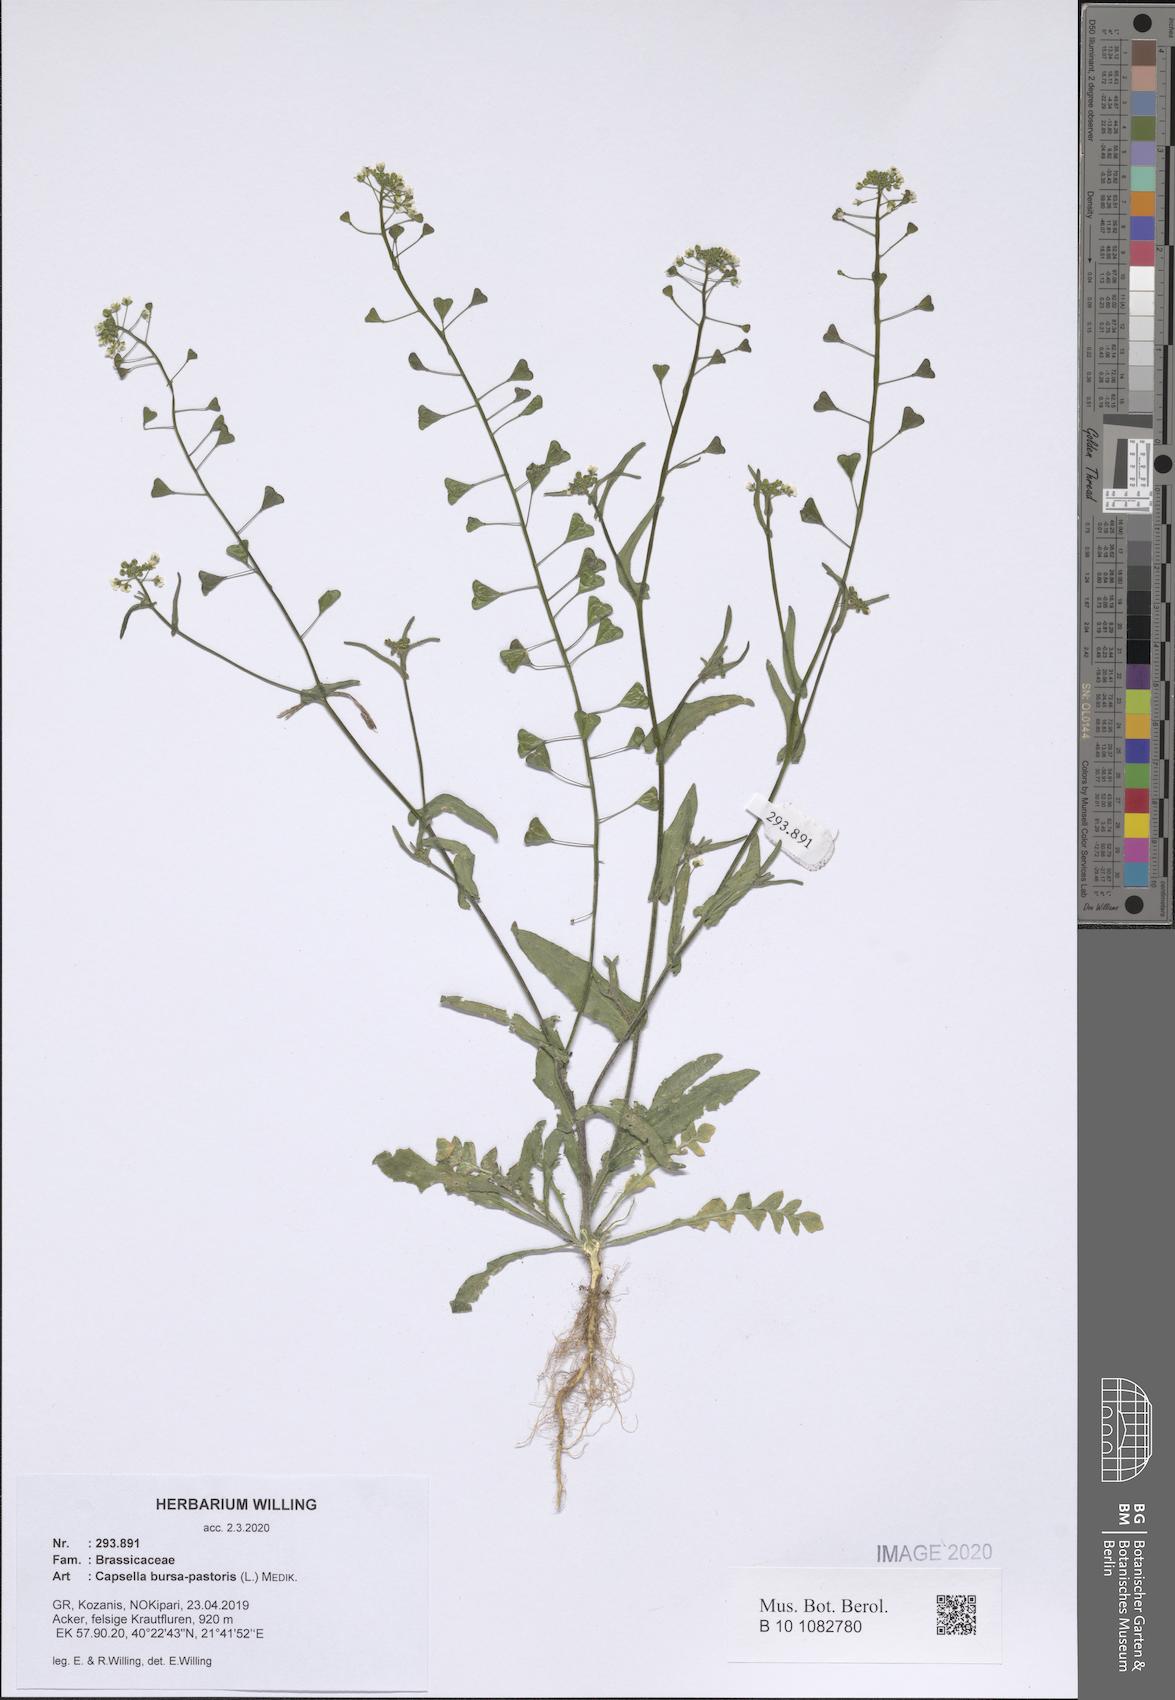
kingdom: Plantae
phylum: Tracheophyta
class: Magnoliopsida
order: Brassicales
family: Brassicaceae
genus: Capsella
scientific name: Capsella bursa-pastoris
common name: Shepherd's purse
